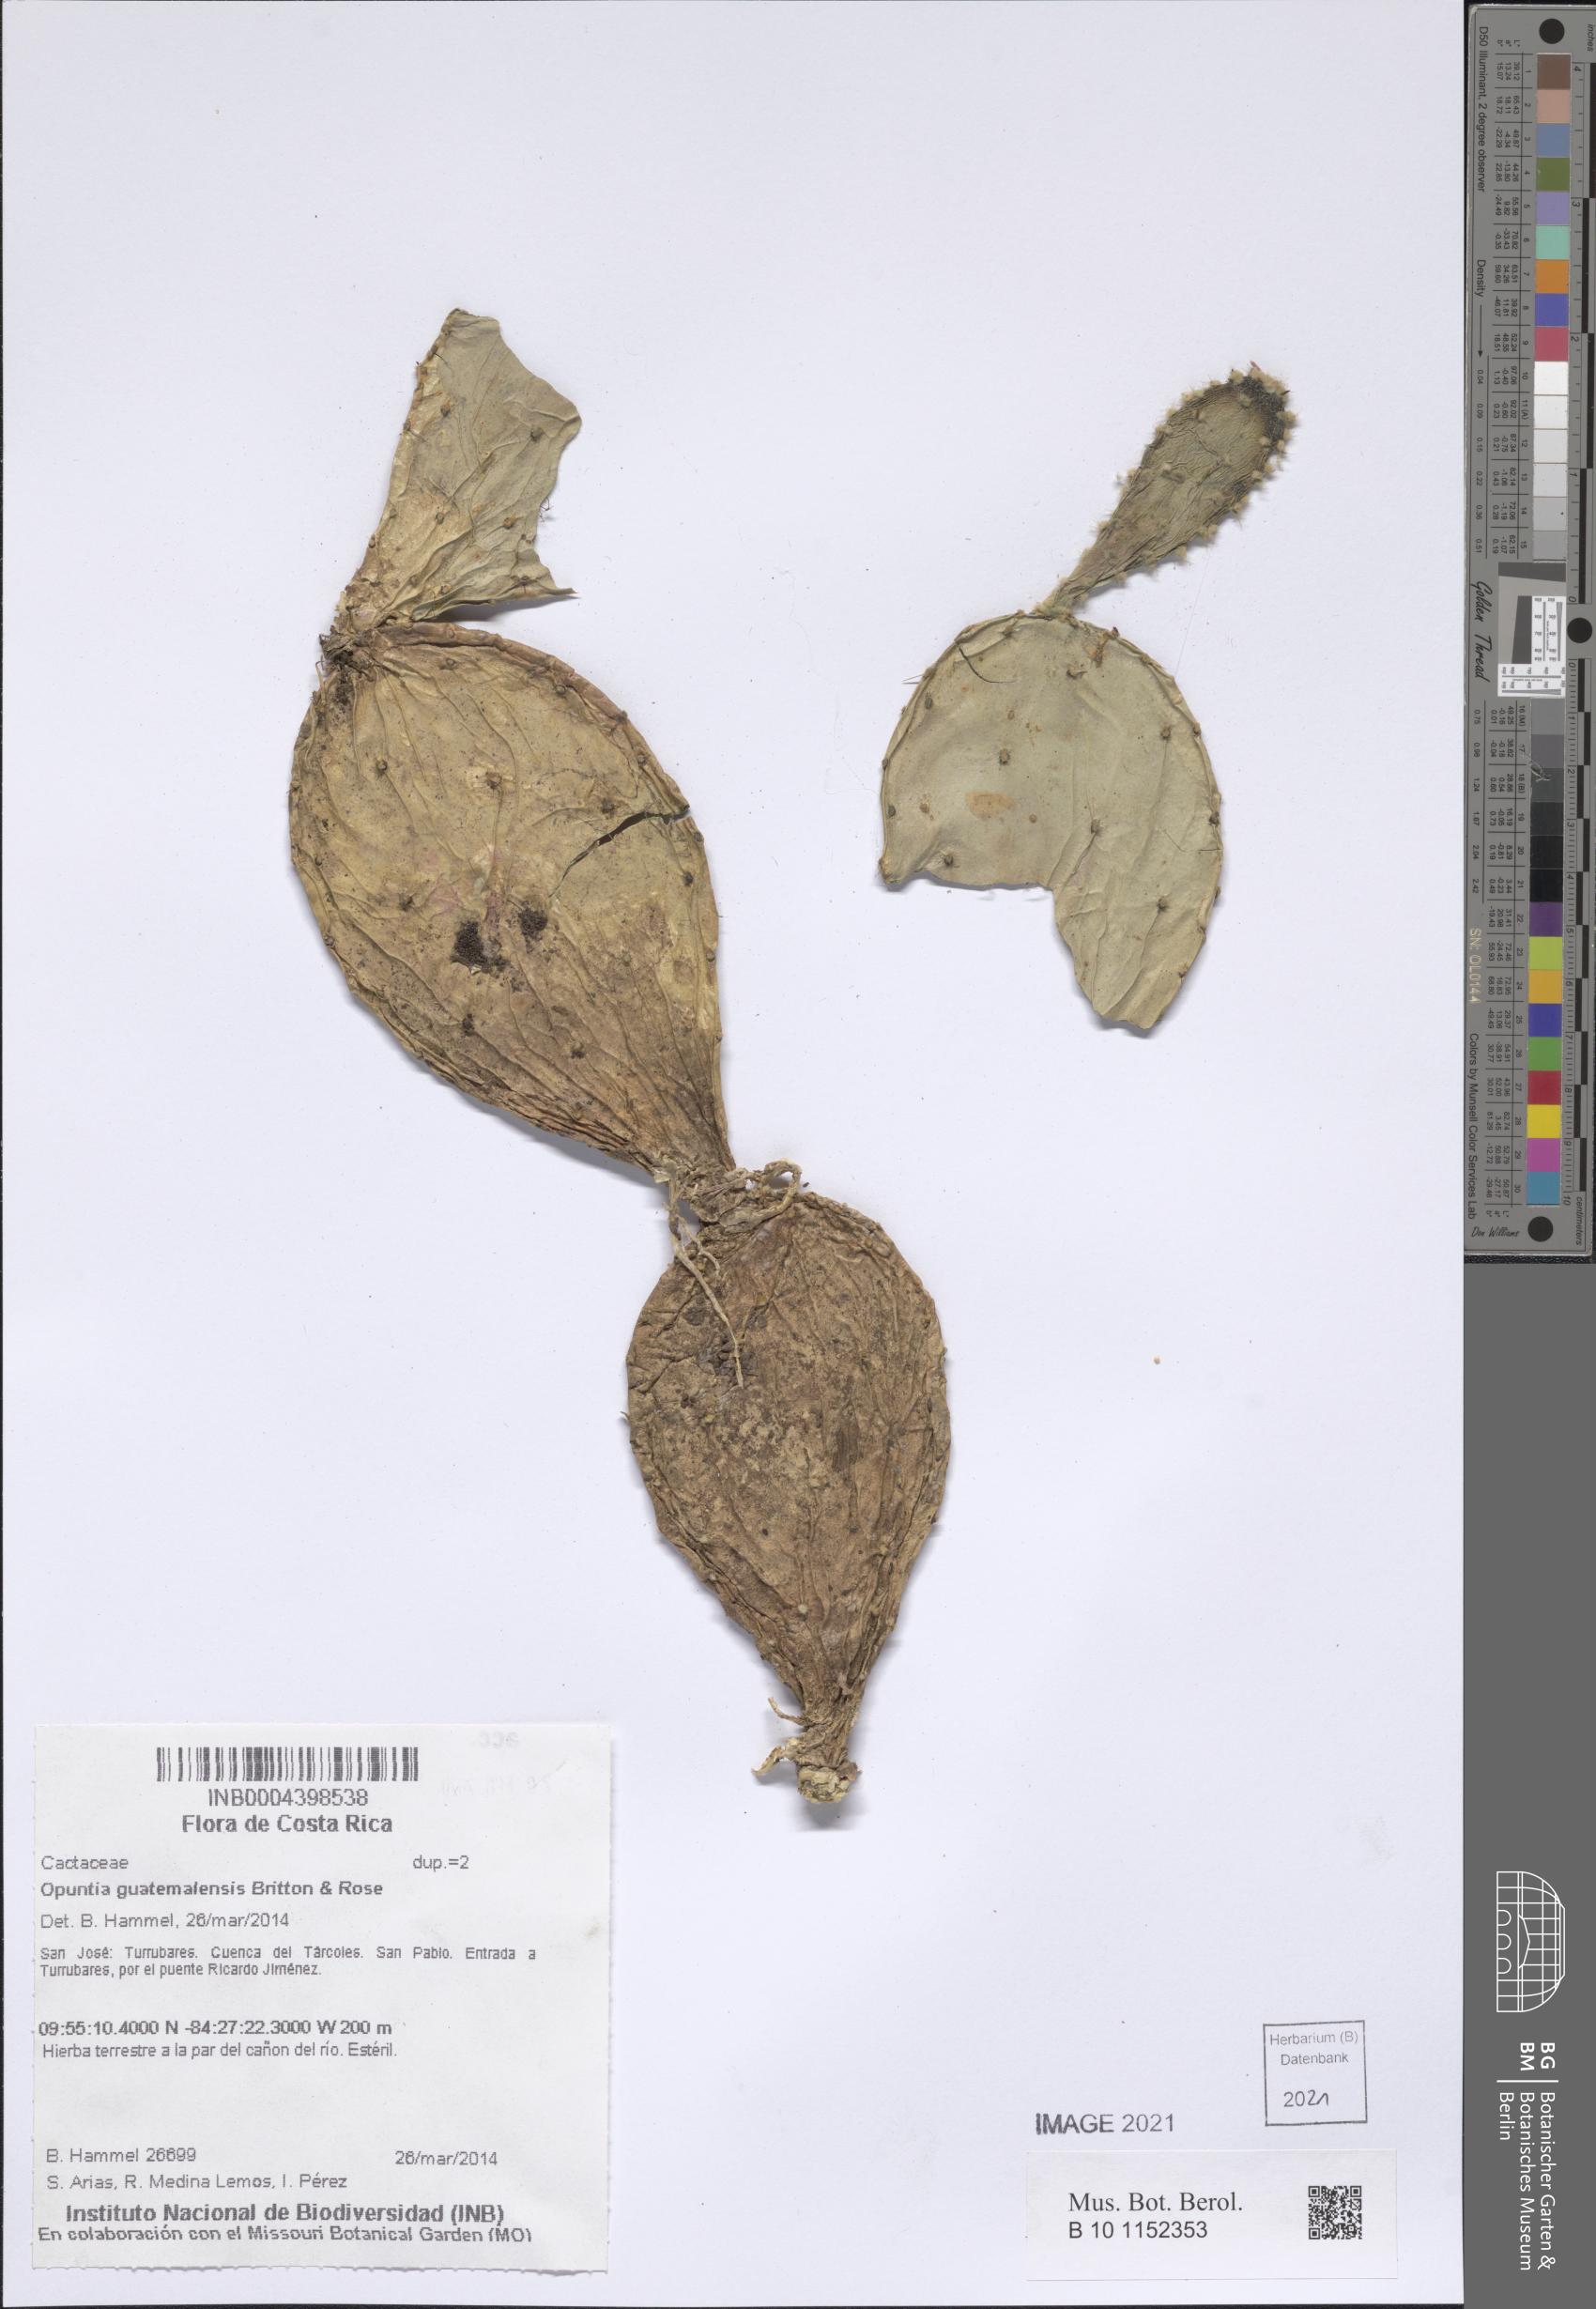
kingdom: Plantae
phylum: Tracheophyta
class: Magnoliopsida
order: Caryophyllales
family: Cactaceae
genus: Opuntia
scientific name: Opuntia auberi
